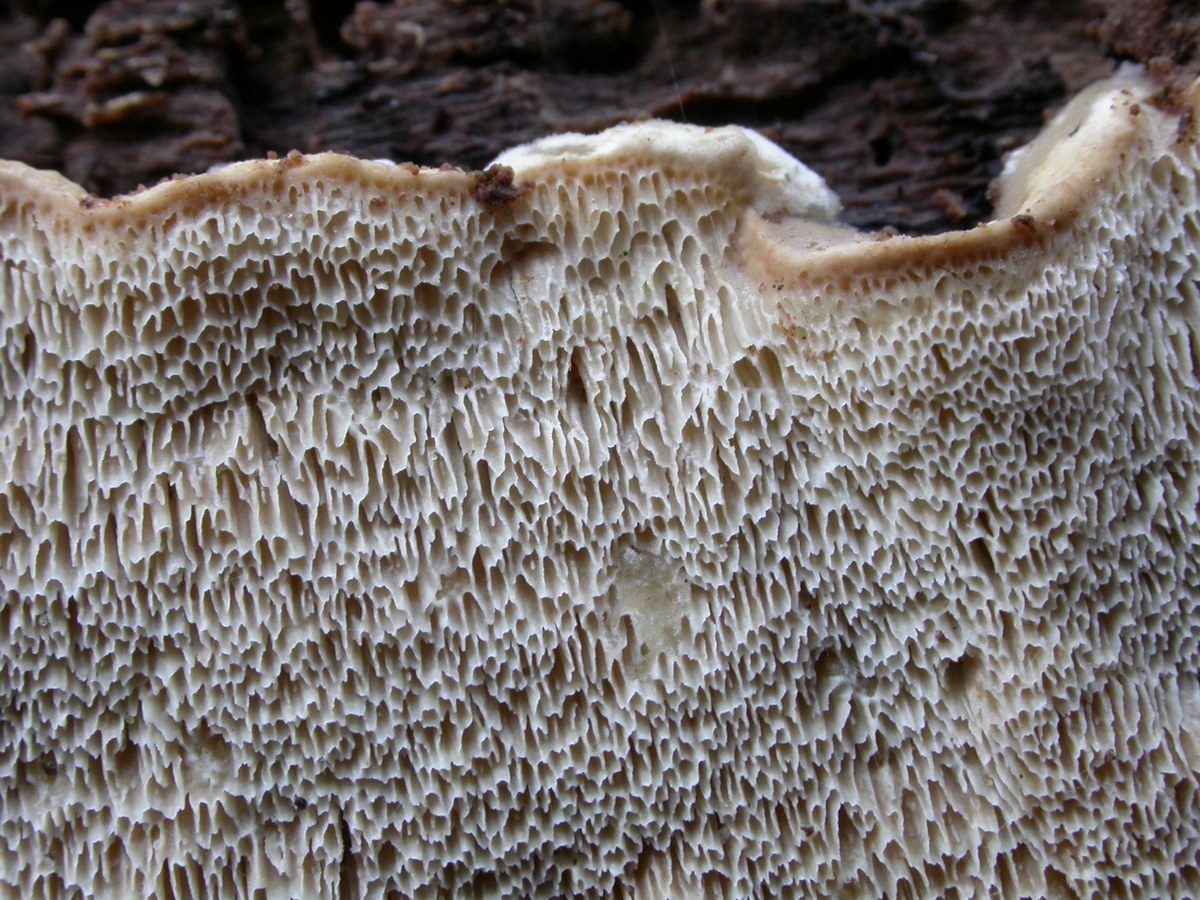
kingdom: Fungi
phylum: Basidiomycota
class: Agaricomycetes
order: Polyporales
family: Phanerochaetaceae
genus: Bjerkandera
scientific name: Bjerkandera fumosa
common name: grågul sodporesvamp
